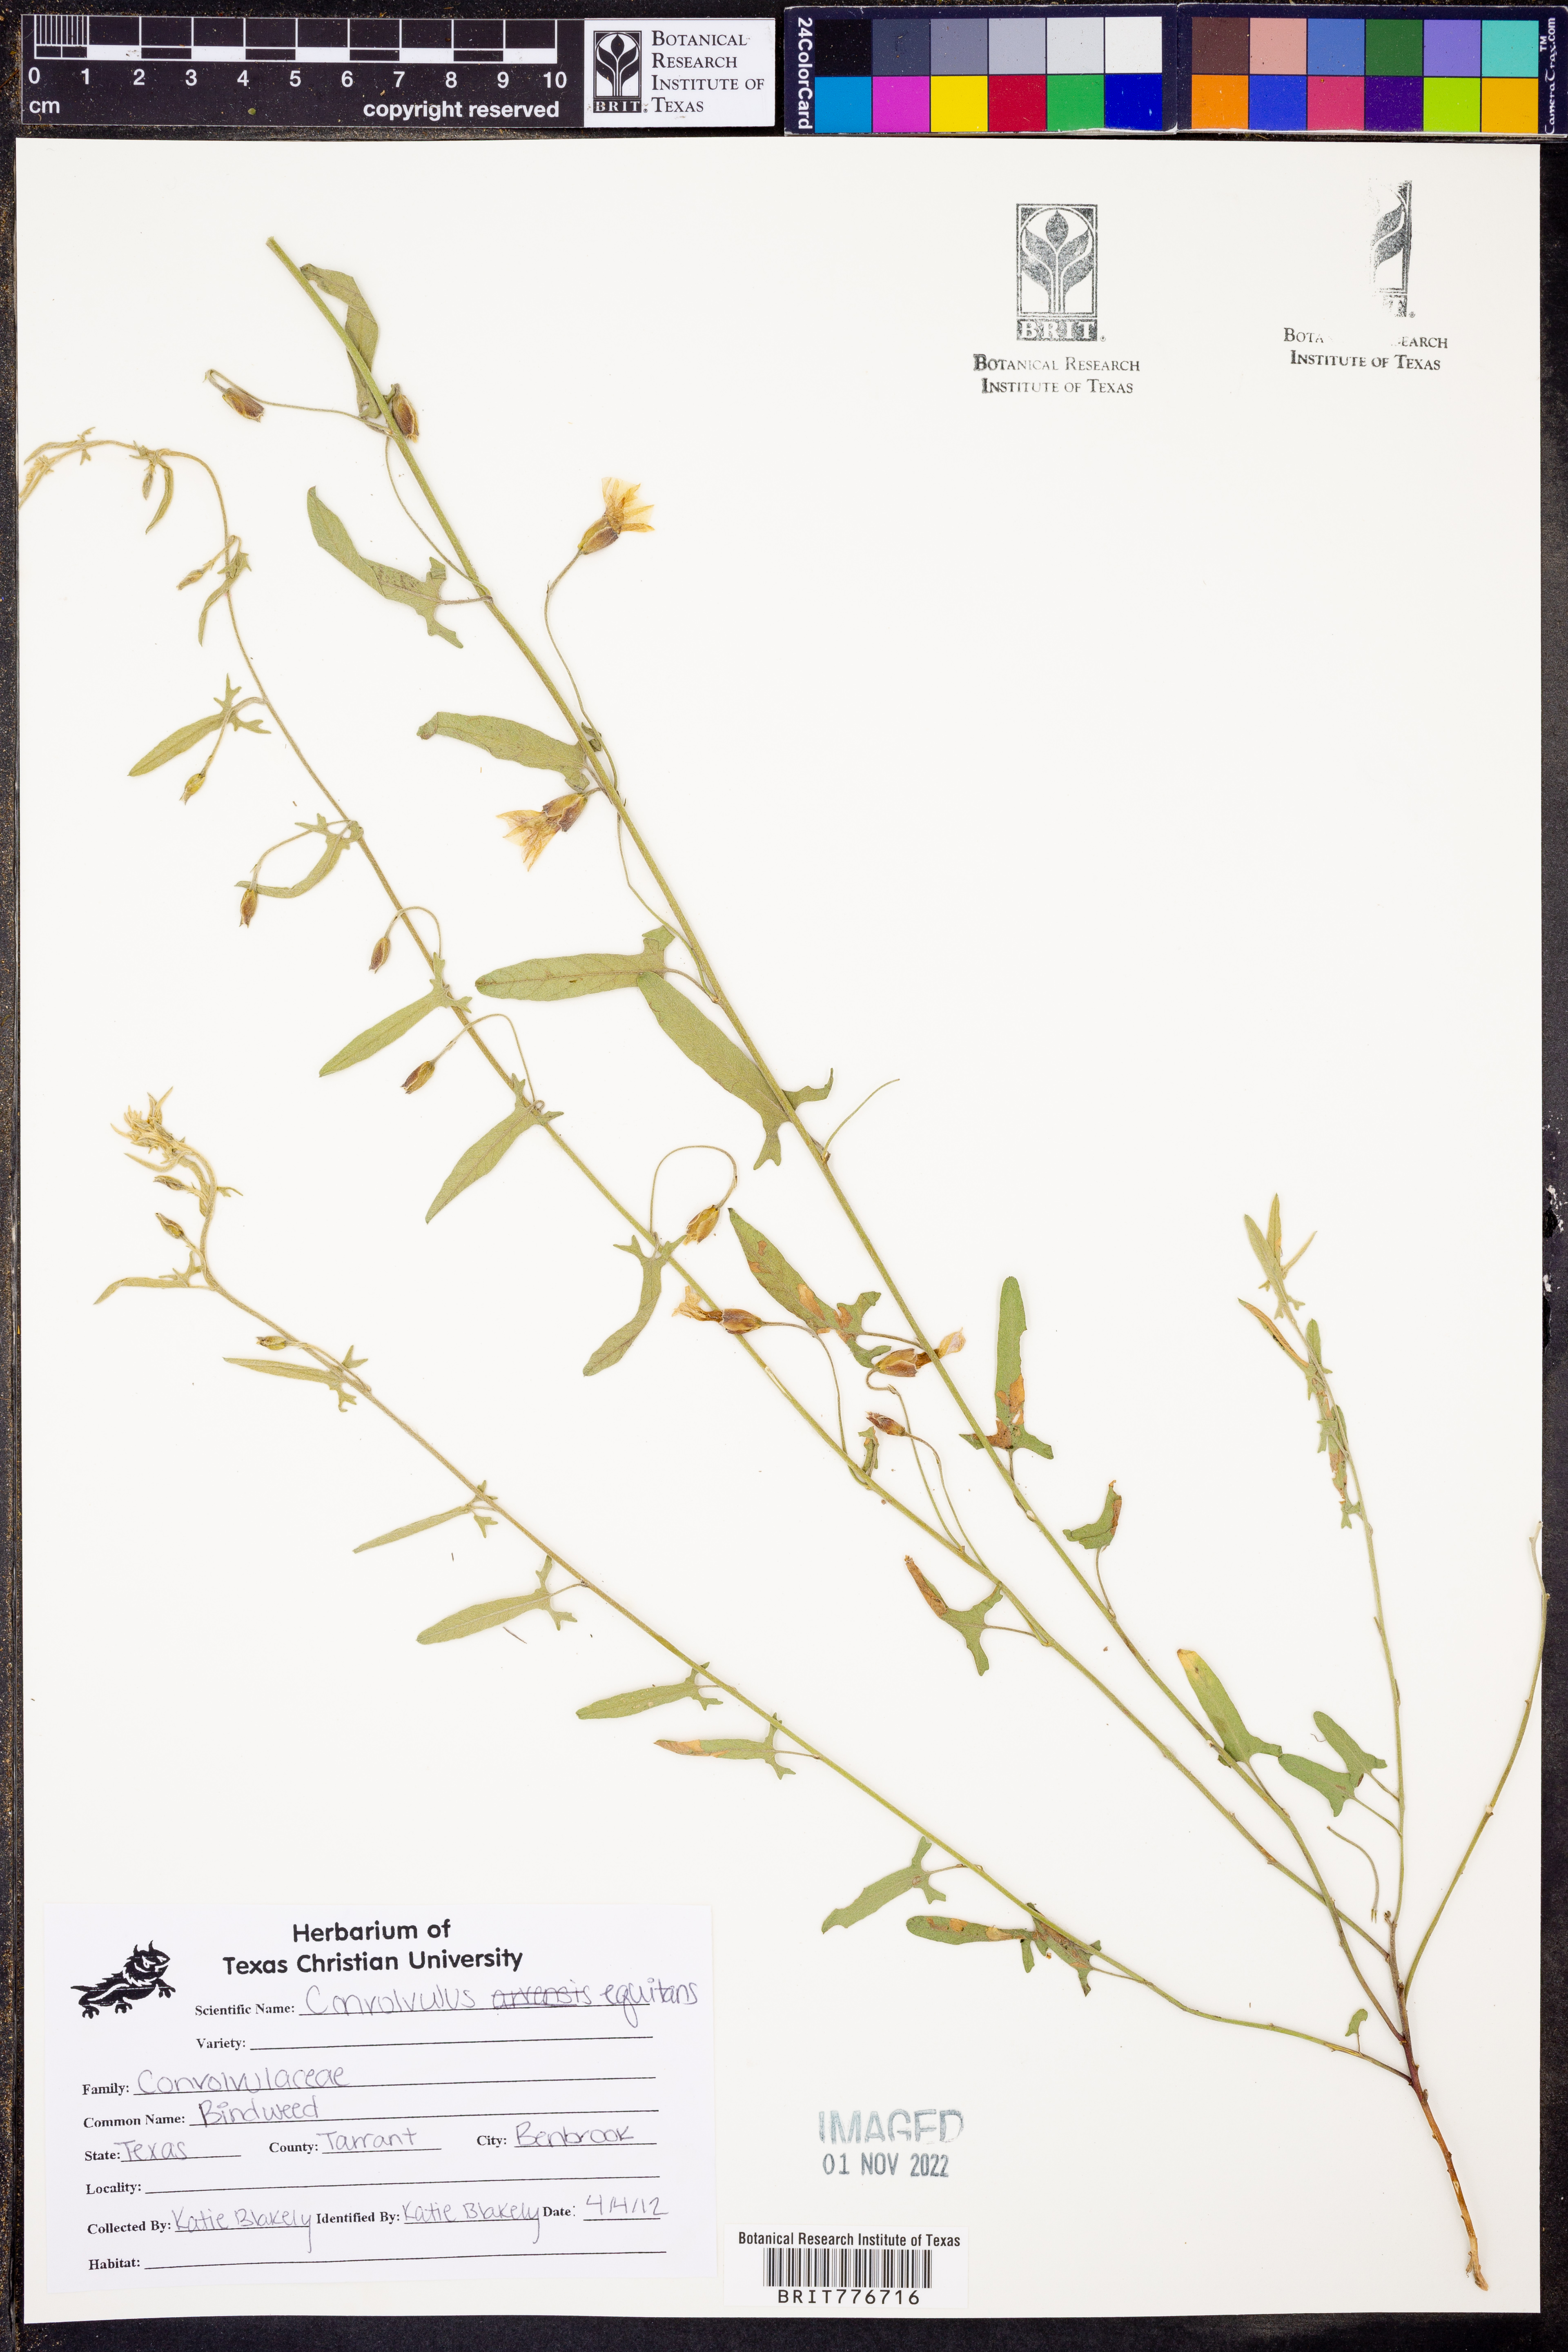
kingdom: Plantae
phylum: Tracheophyta
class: Magnoliopsida
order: Solanales
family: Convolvulaceae
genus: Convolvulus
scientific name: Convolvulus equitans
